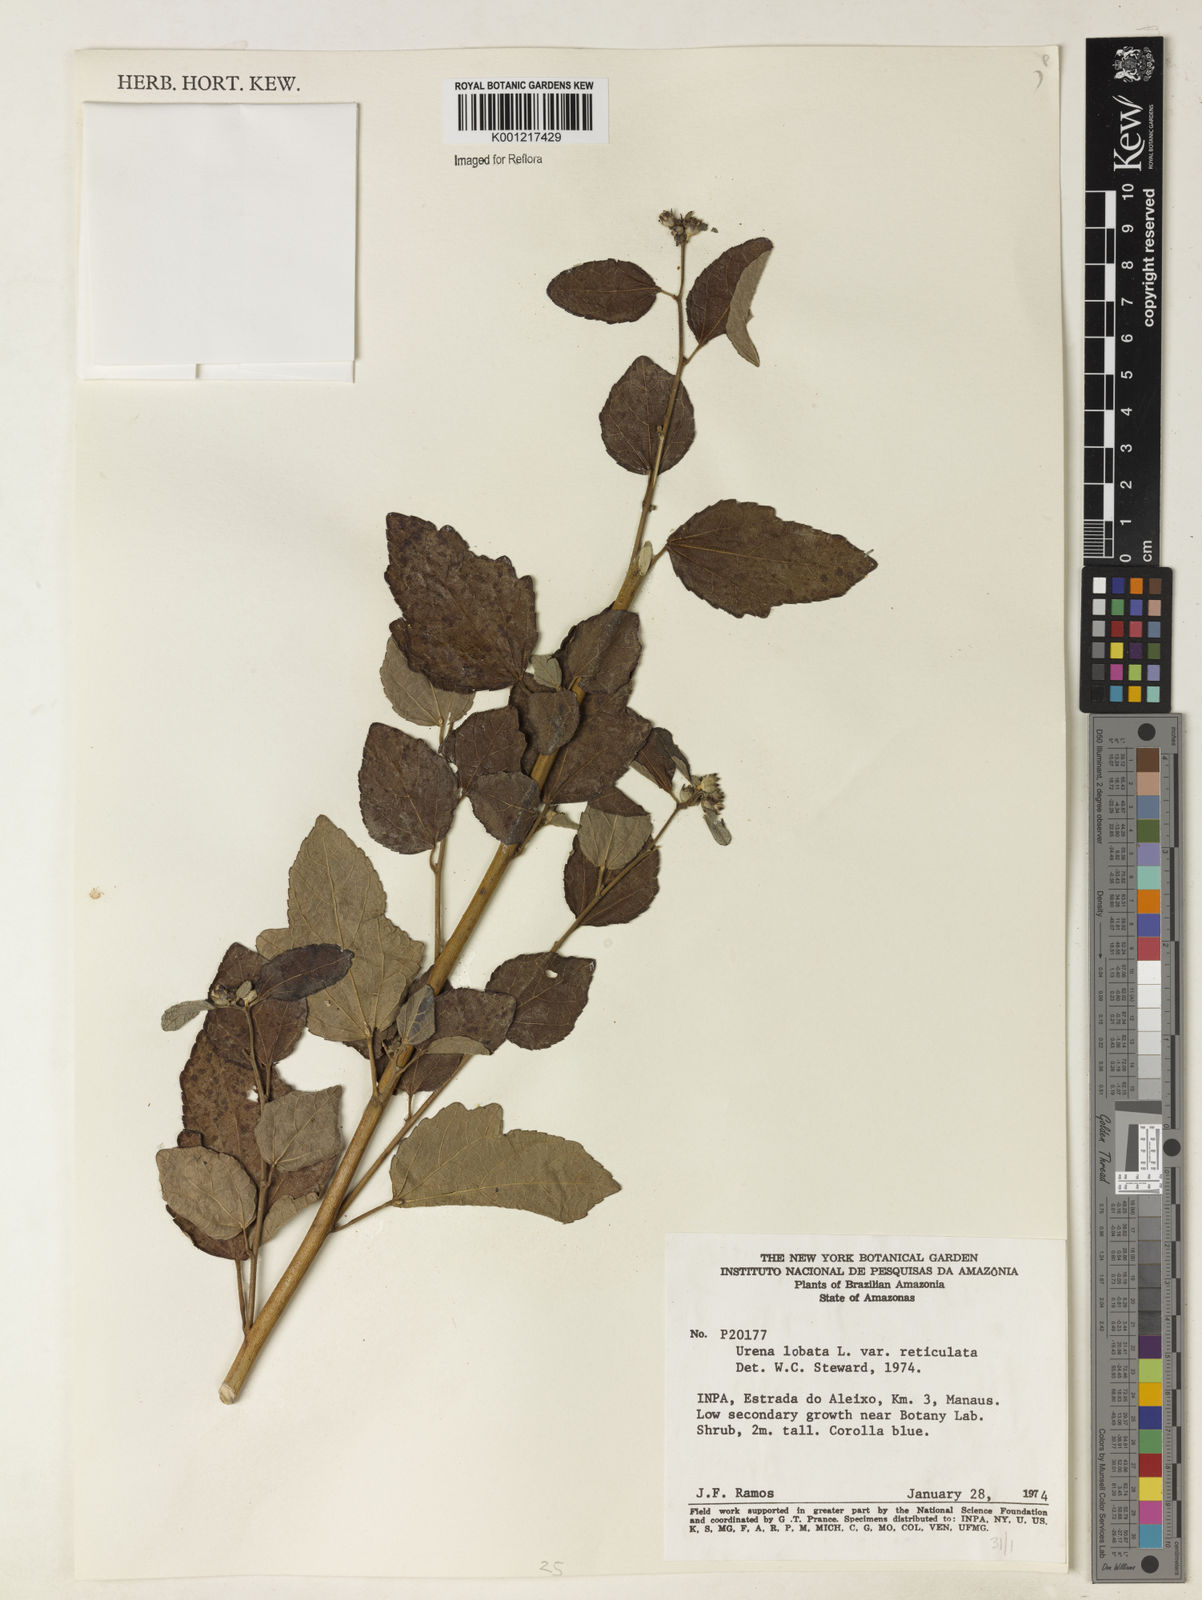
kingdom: Plantae
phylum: Tracheophyta
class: Magnoliopsida
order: Malvales
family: Malvaceae
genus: Urena
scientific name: Urena lobata
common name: Caesarweed
